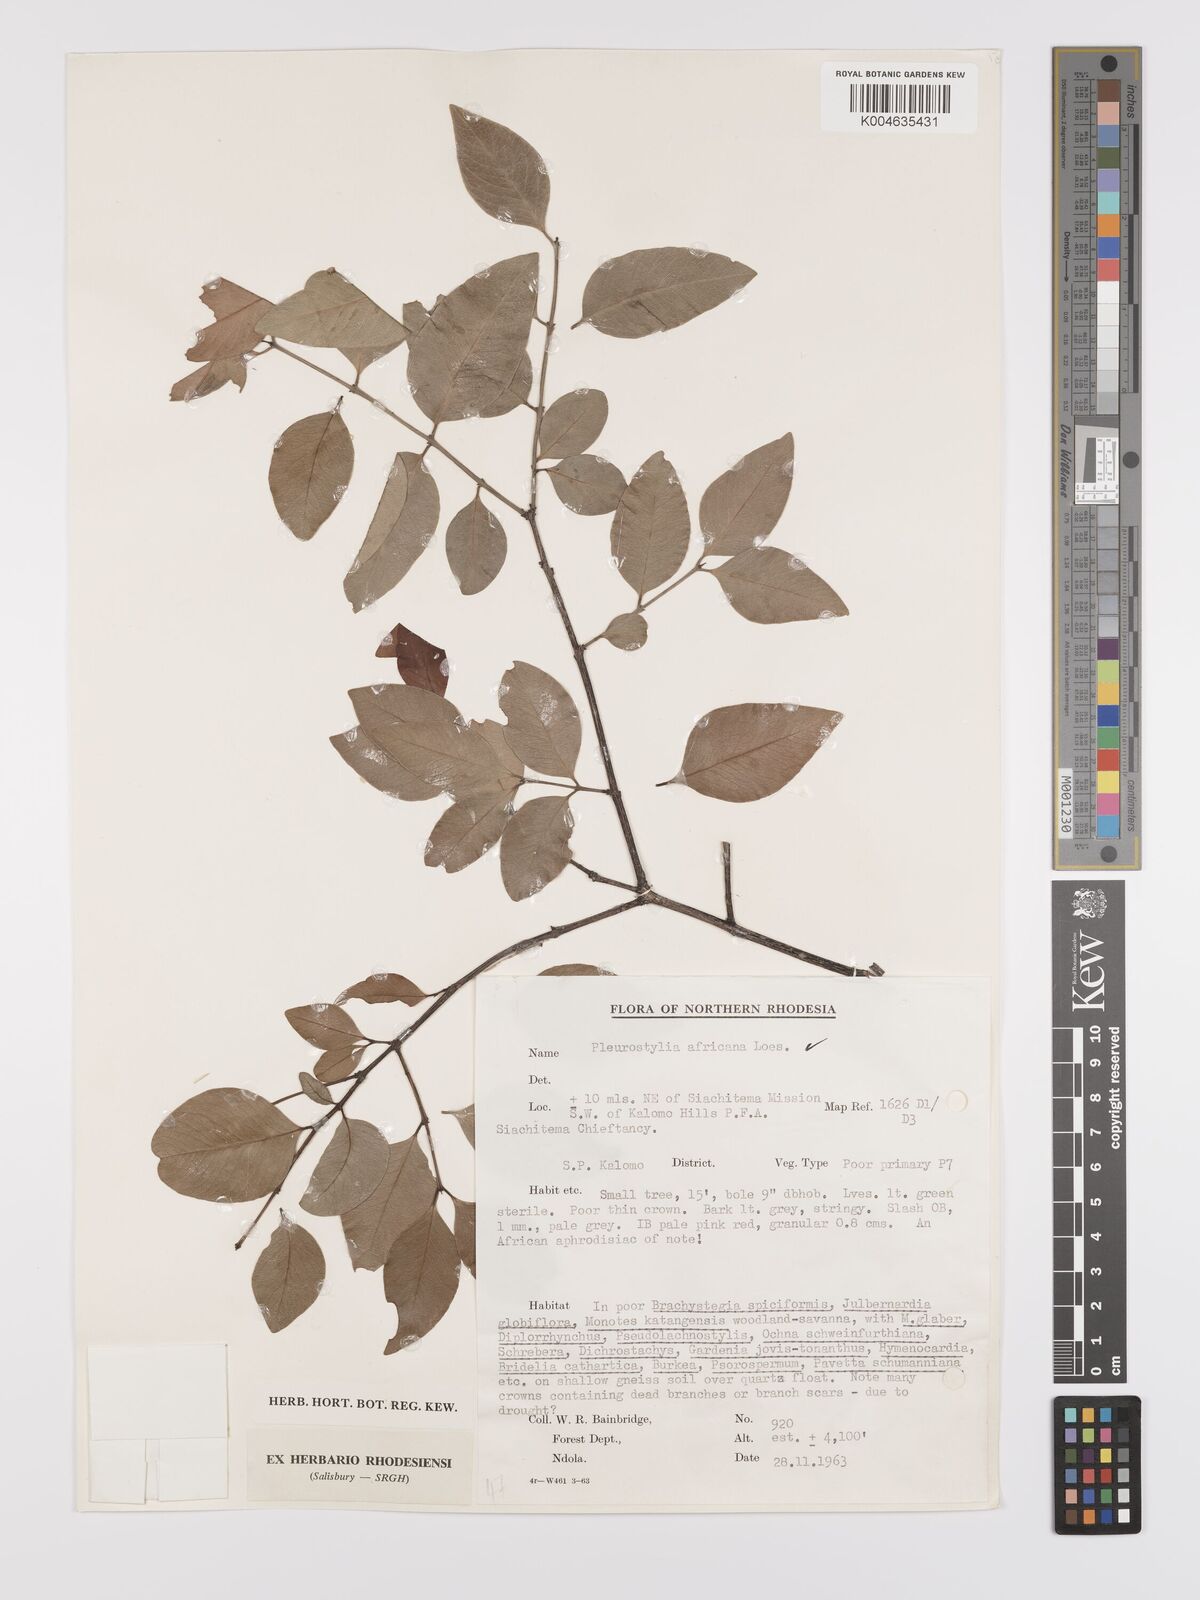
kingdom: Plantae
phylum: Tracheophyta
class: Magnoliopsida
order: Celastrales
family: Celastraceae
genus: Pleurostylia
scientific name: Pleurostylia africana
